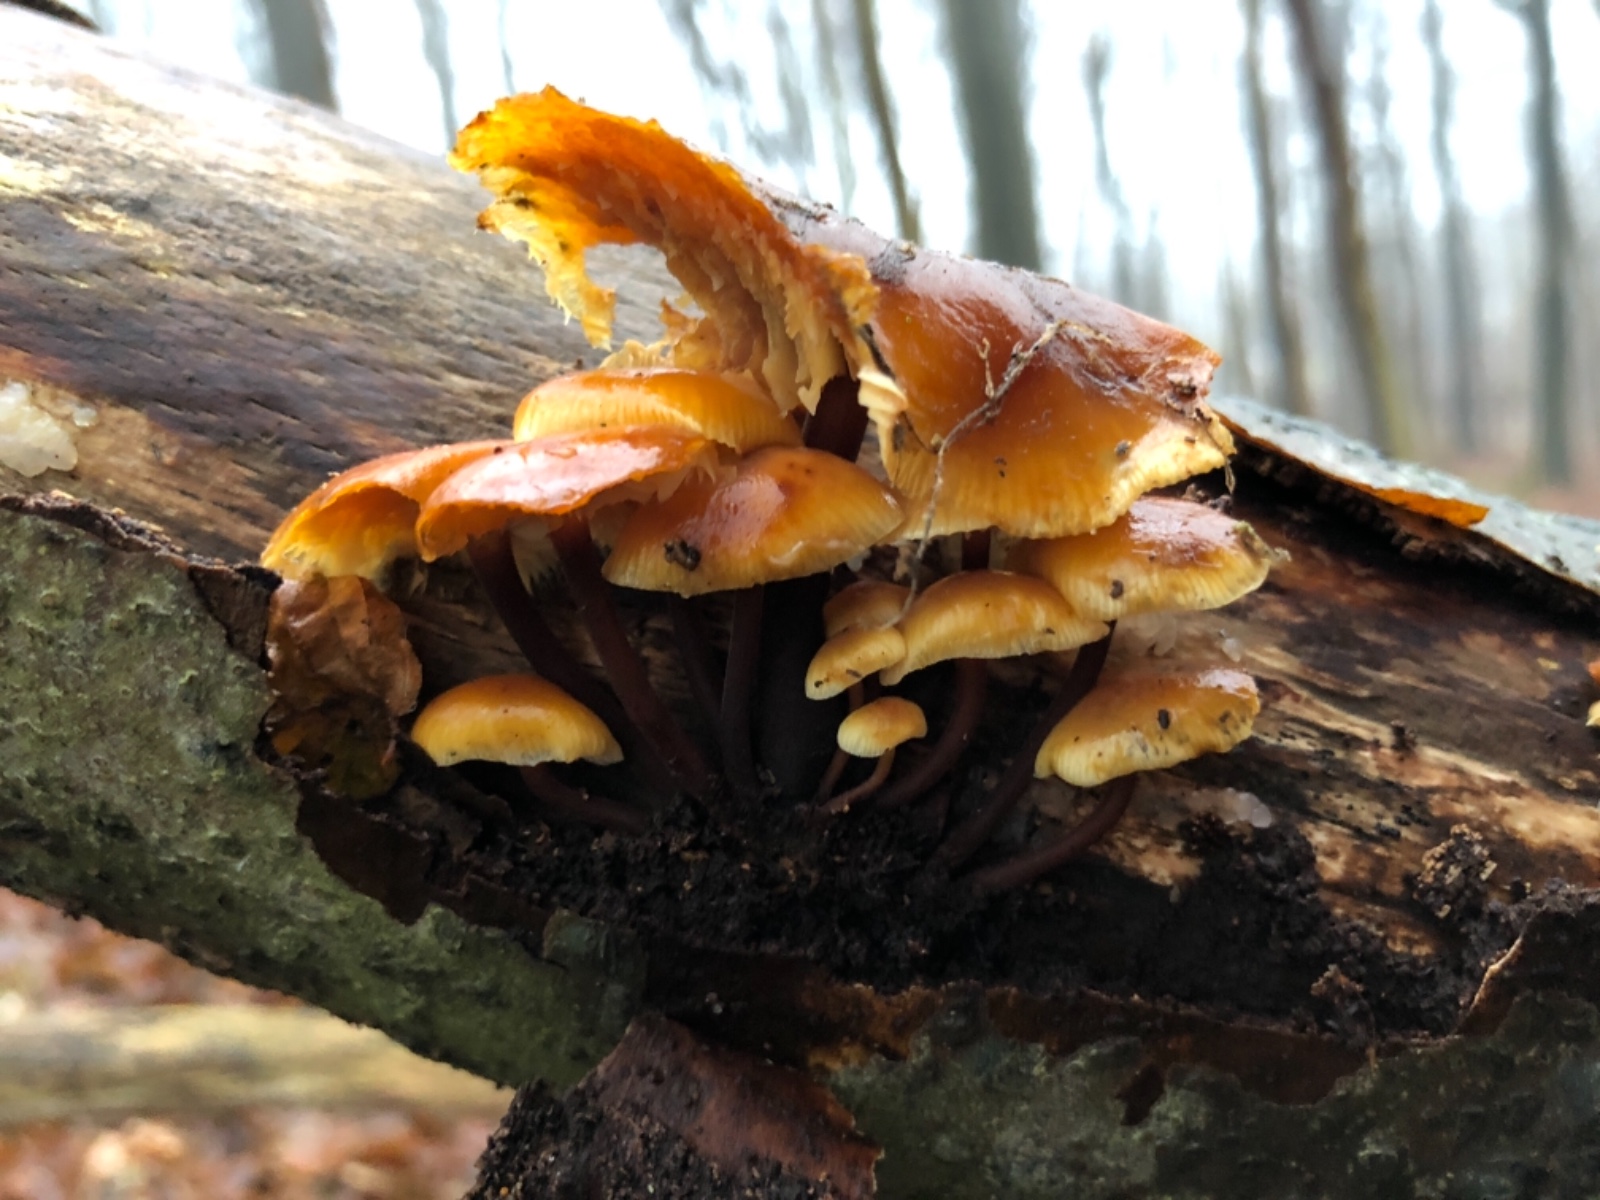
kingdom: Fungi
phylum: Basidiomycota
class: Agaricomycetes
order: Agaricales
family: Physalacriaceae
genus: Flammulina
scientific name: Flammulina velutipes
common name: gul fløjlsfod
